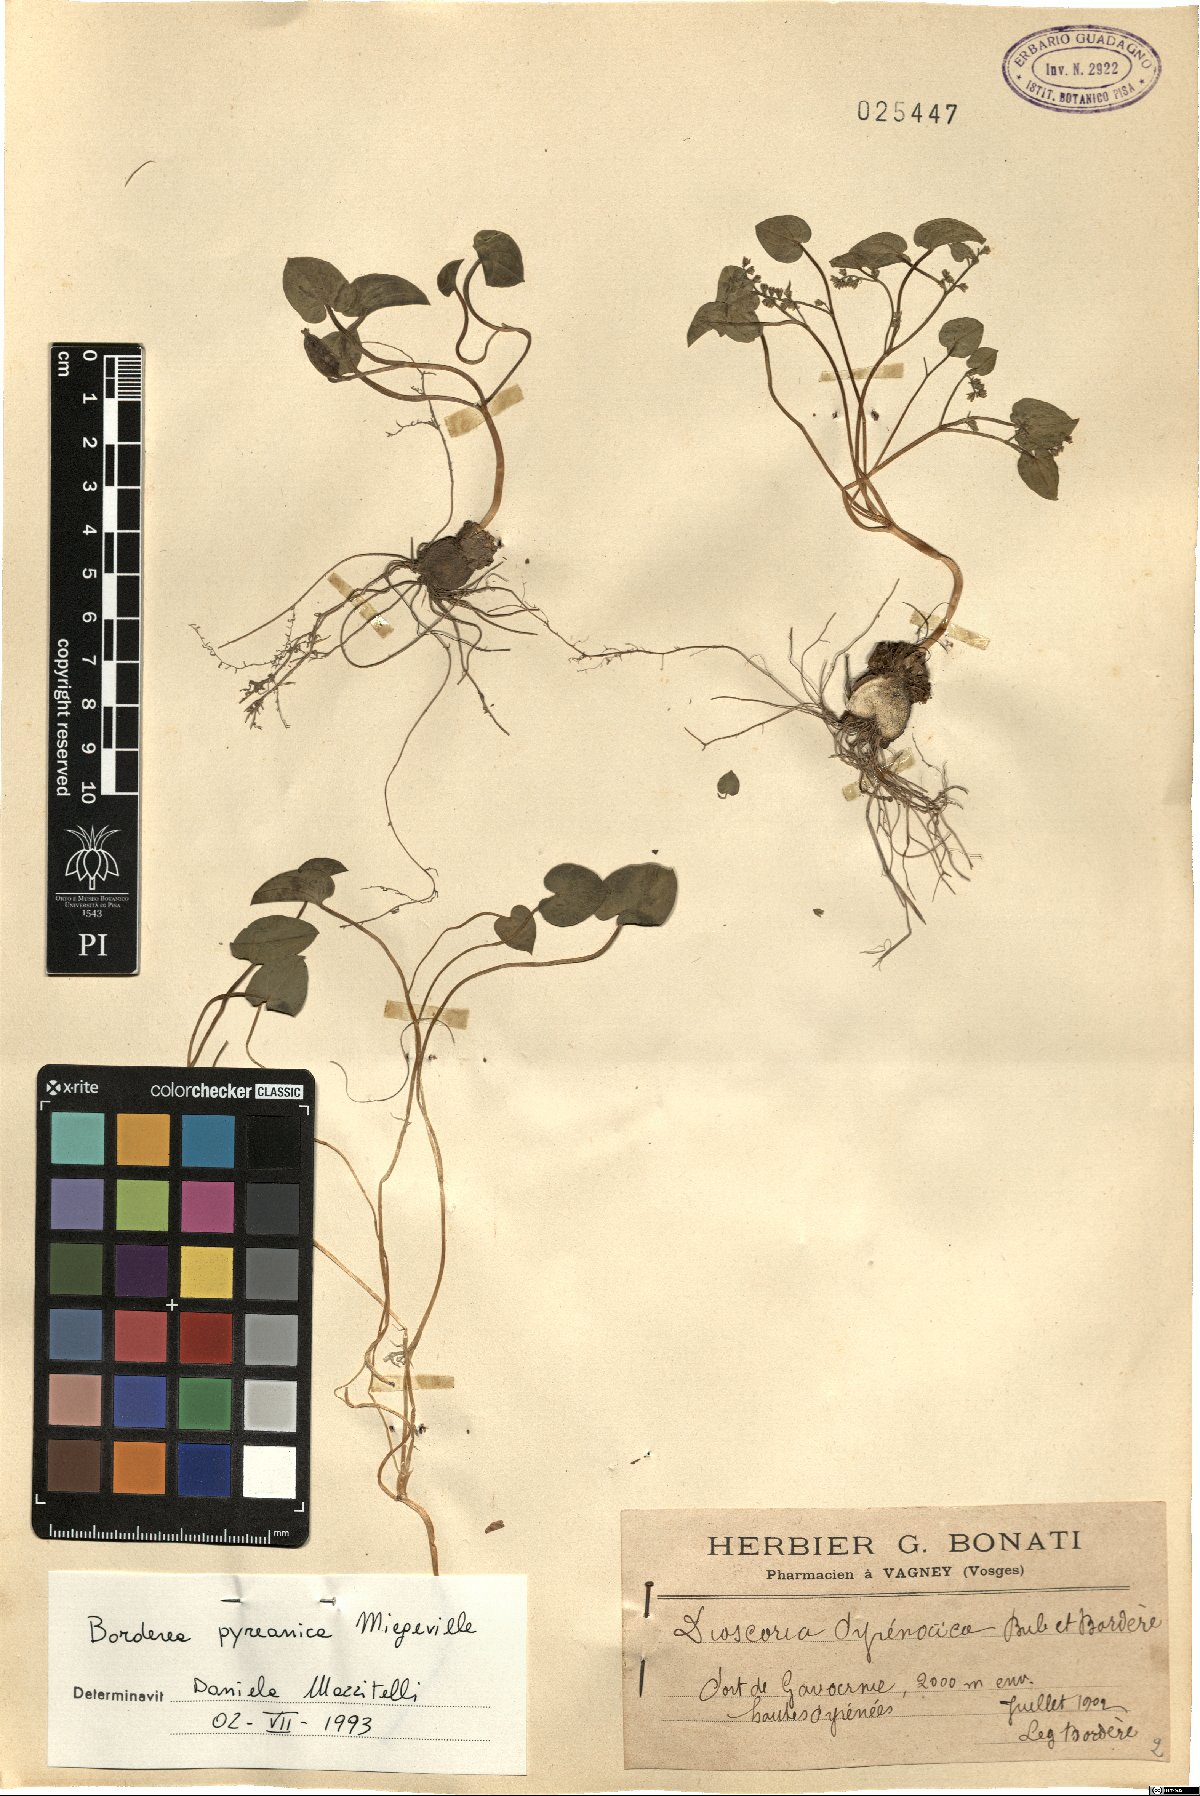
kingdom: Plantae
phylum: Tracheophyta
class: Liliopsida
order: Dioscoreales
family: Dioscoreaceae
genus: Dioscorea
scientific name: Dioscorea pyrenaica
